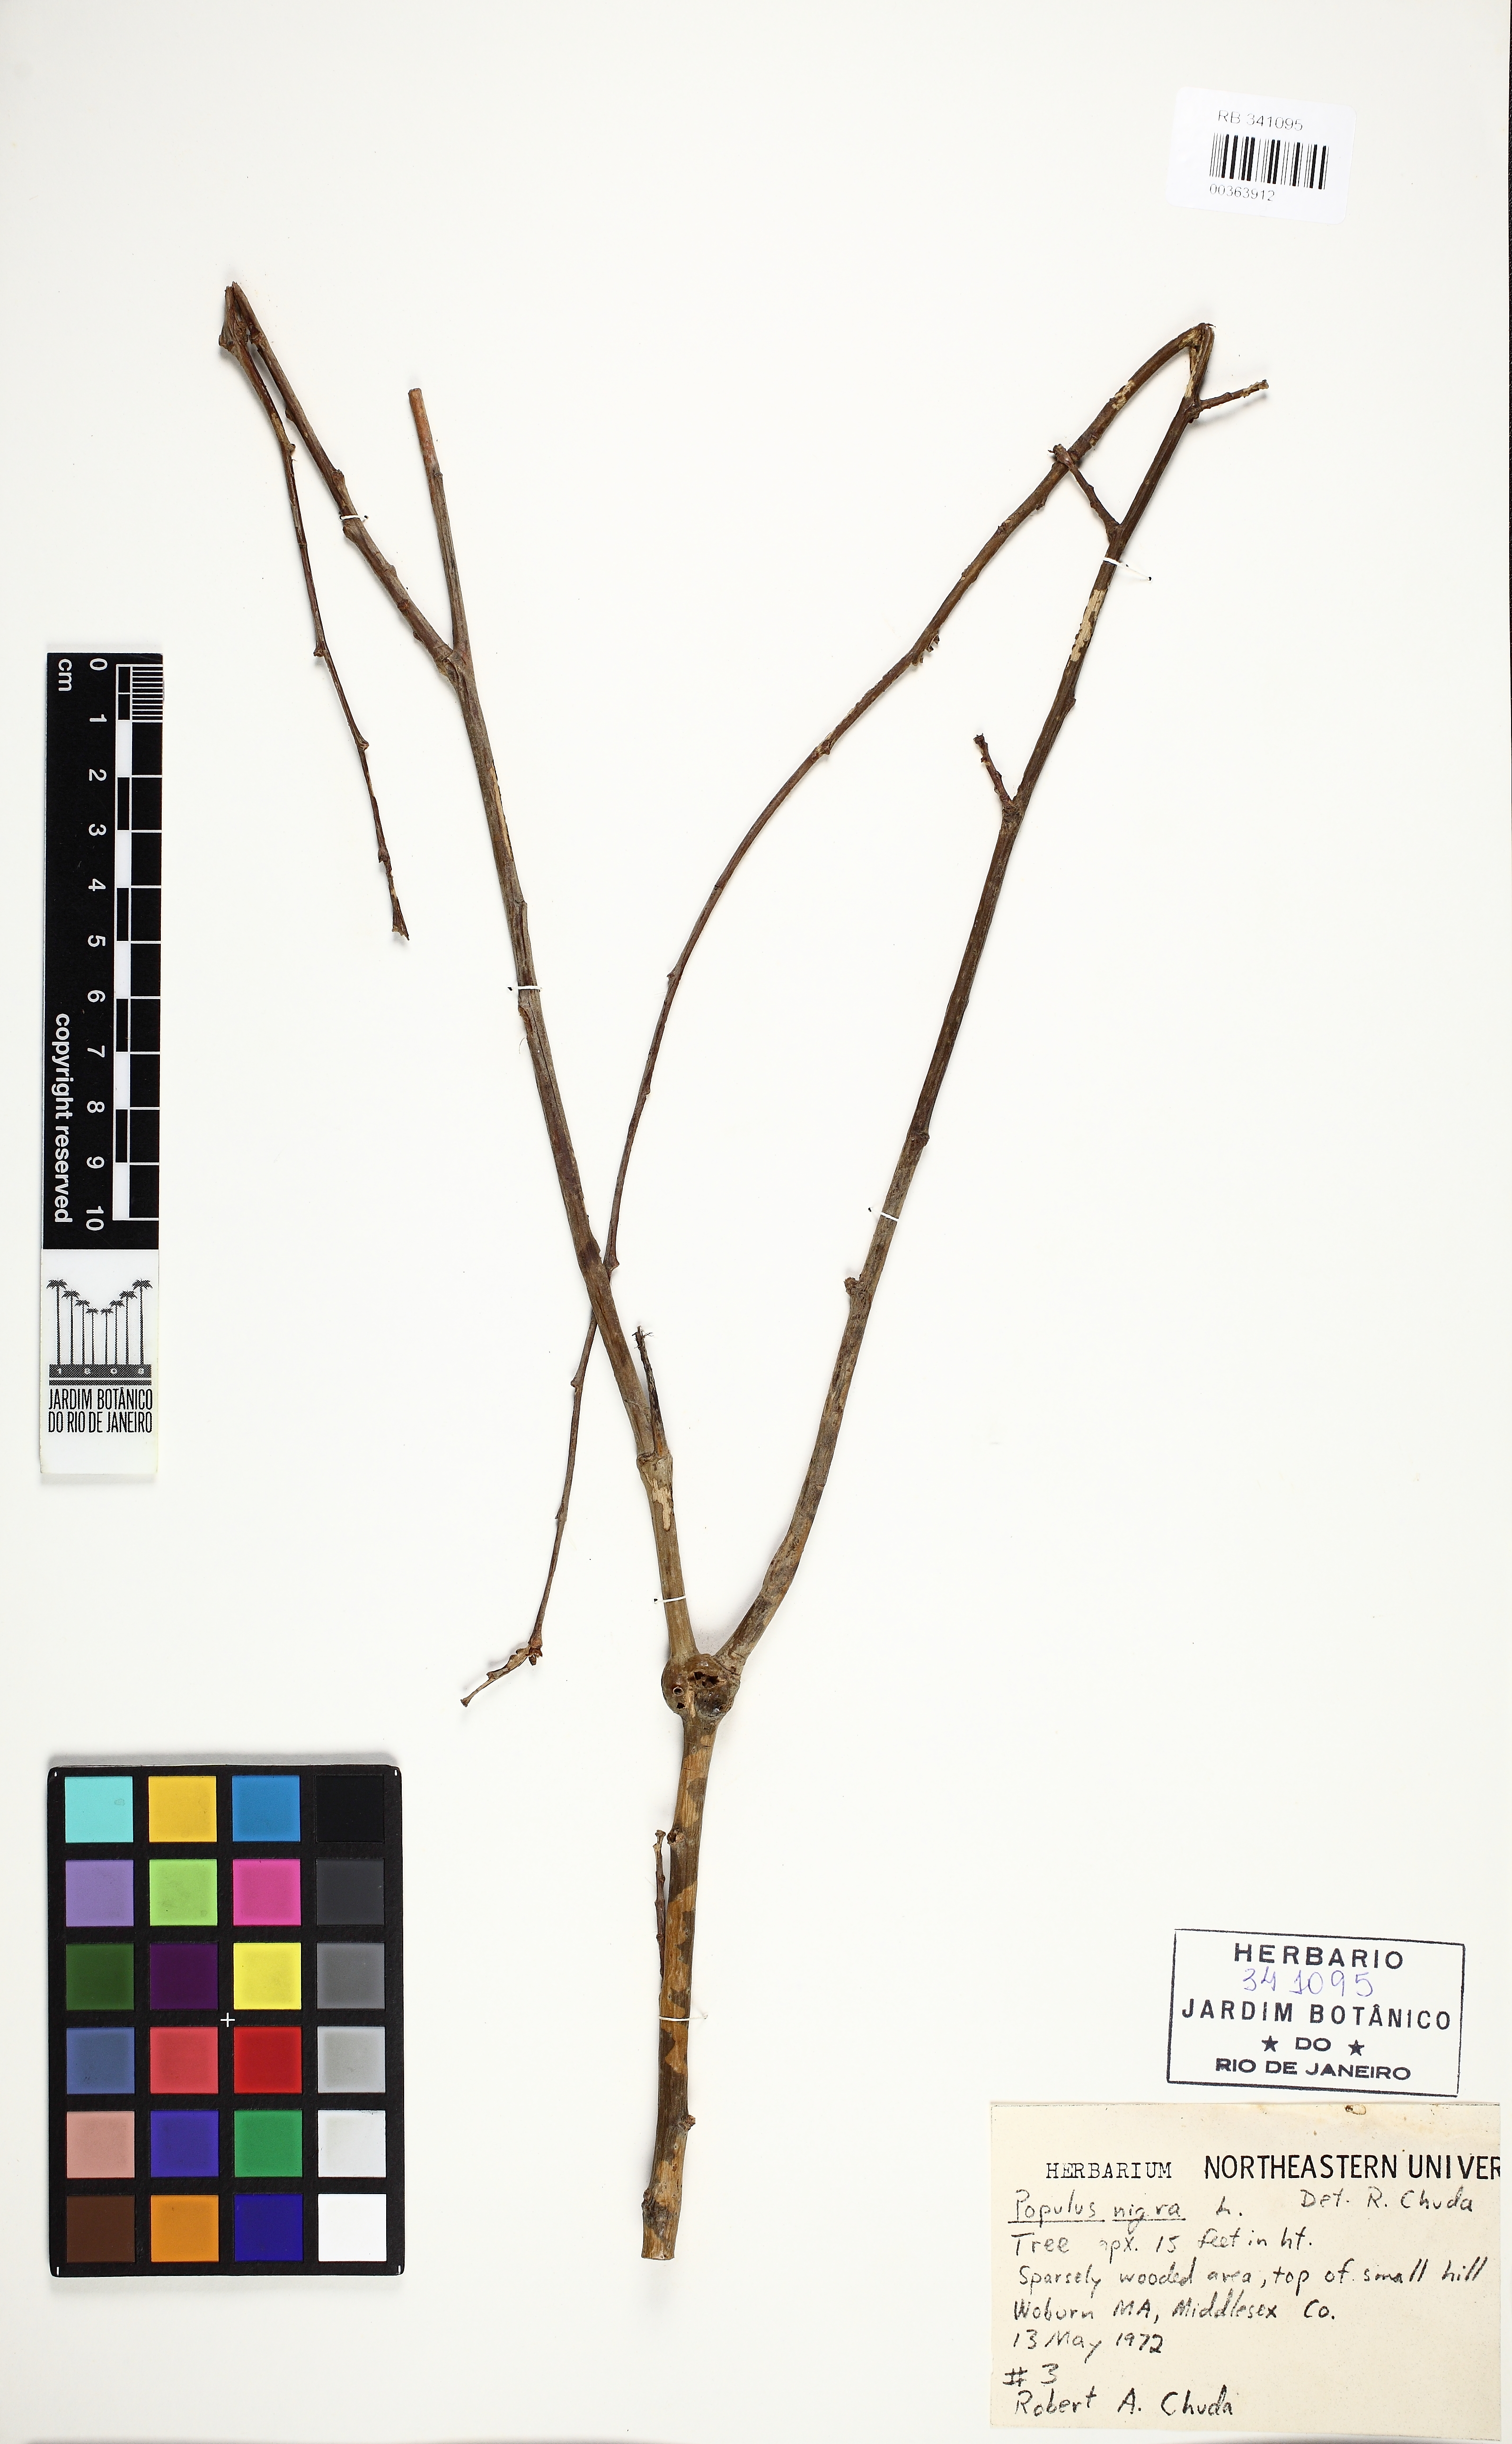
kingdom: Plantae
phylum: Tracheophyta
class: Magnoliopsida
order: Malpighiales
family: Salicaceae
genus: Populus
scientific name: Populus nigra
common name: Black poplar
